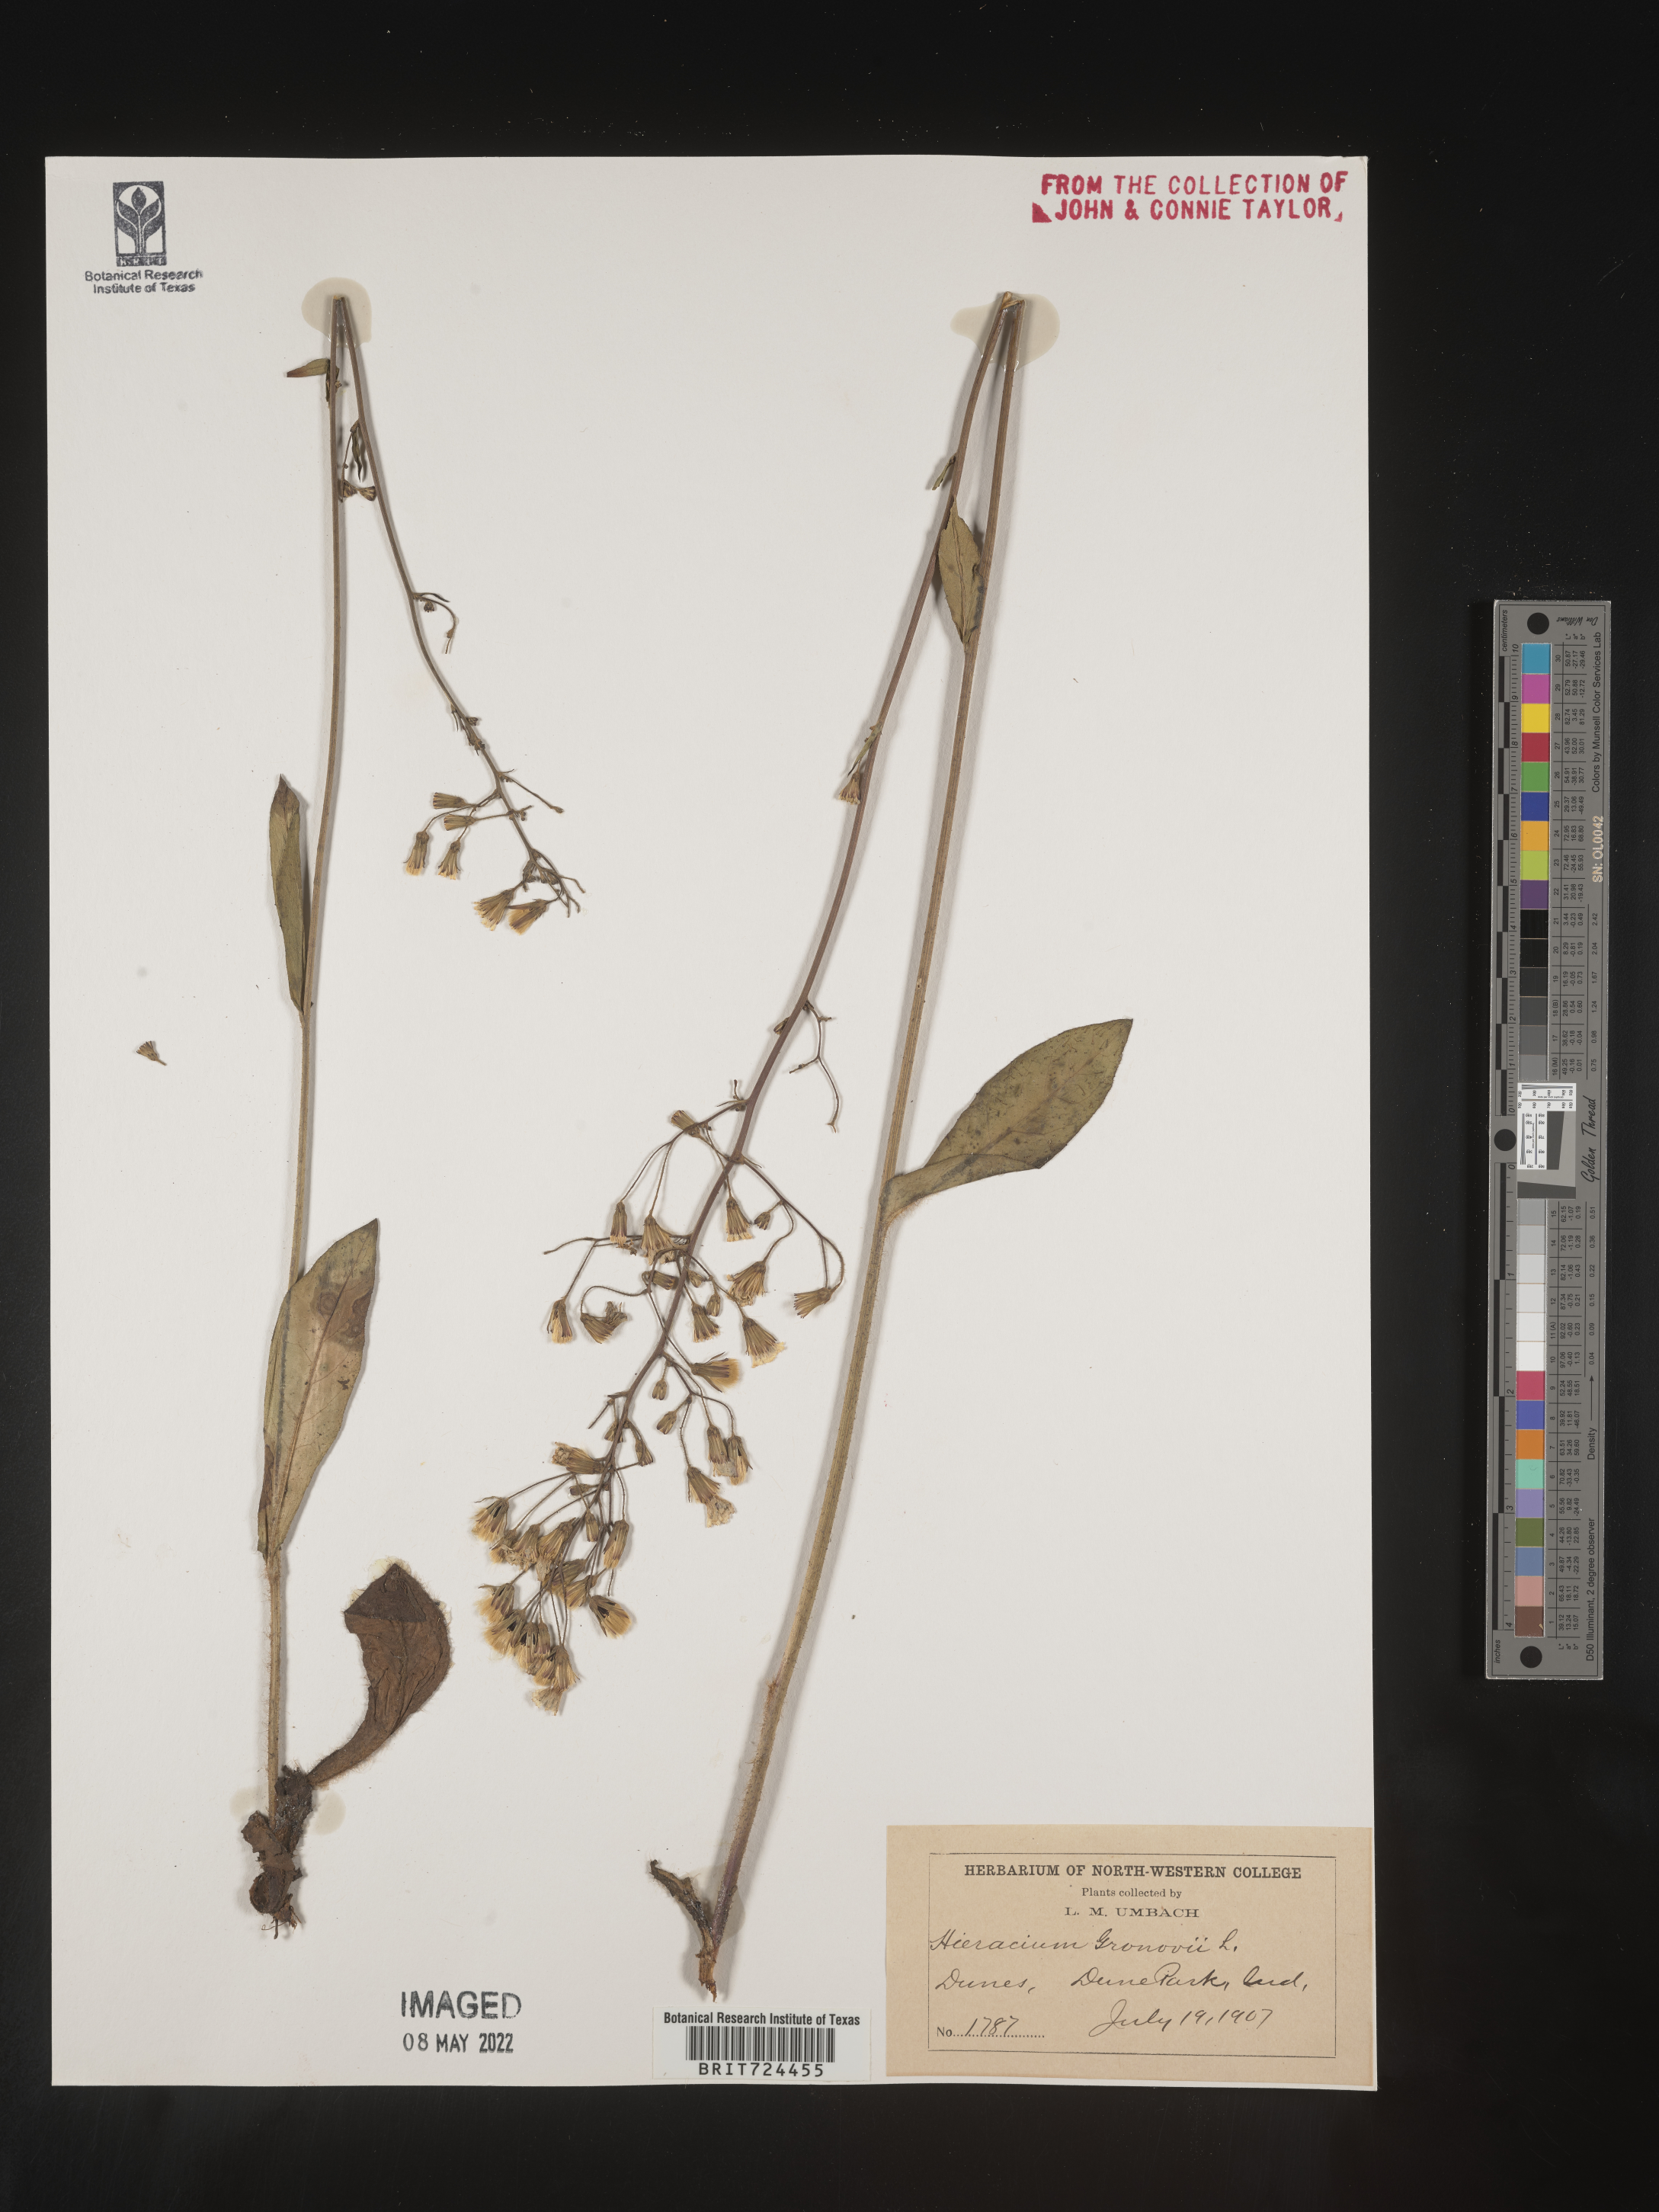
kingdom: Plantae
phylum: Tracheophyta
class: Magnoliopsida
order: Asterales
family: Asteraceae
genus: Hieracium
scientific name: Hieracium gronovii
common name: Beaked hawkweed
